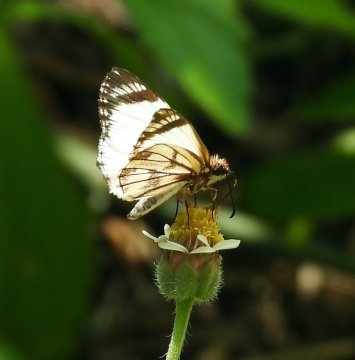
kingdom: Animalia
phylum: Arthropoda
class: Insecta
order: Lepidoptera
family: Hesperiidae
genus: Heliopetes
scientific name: Heliopetes alana
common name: Alana White-Skipper
